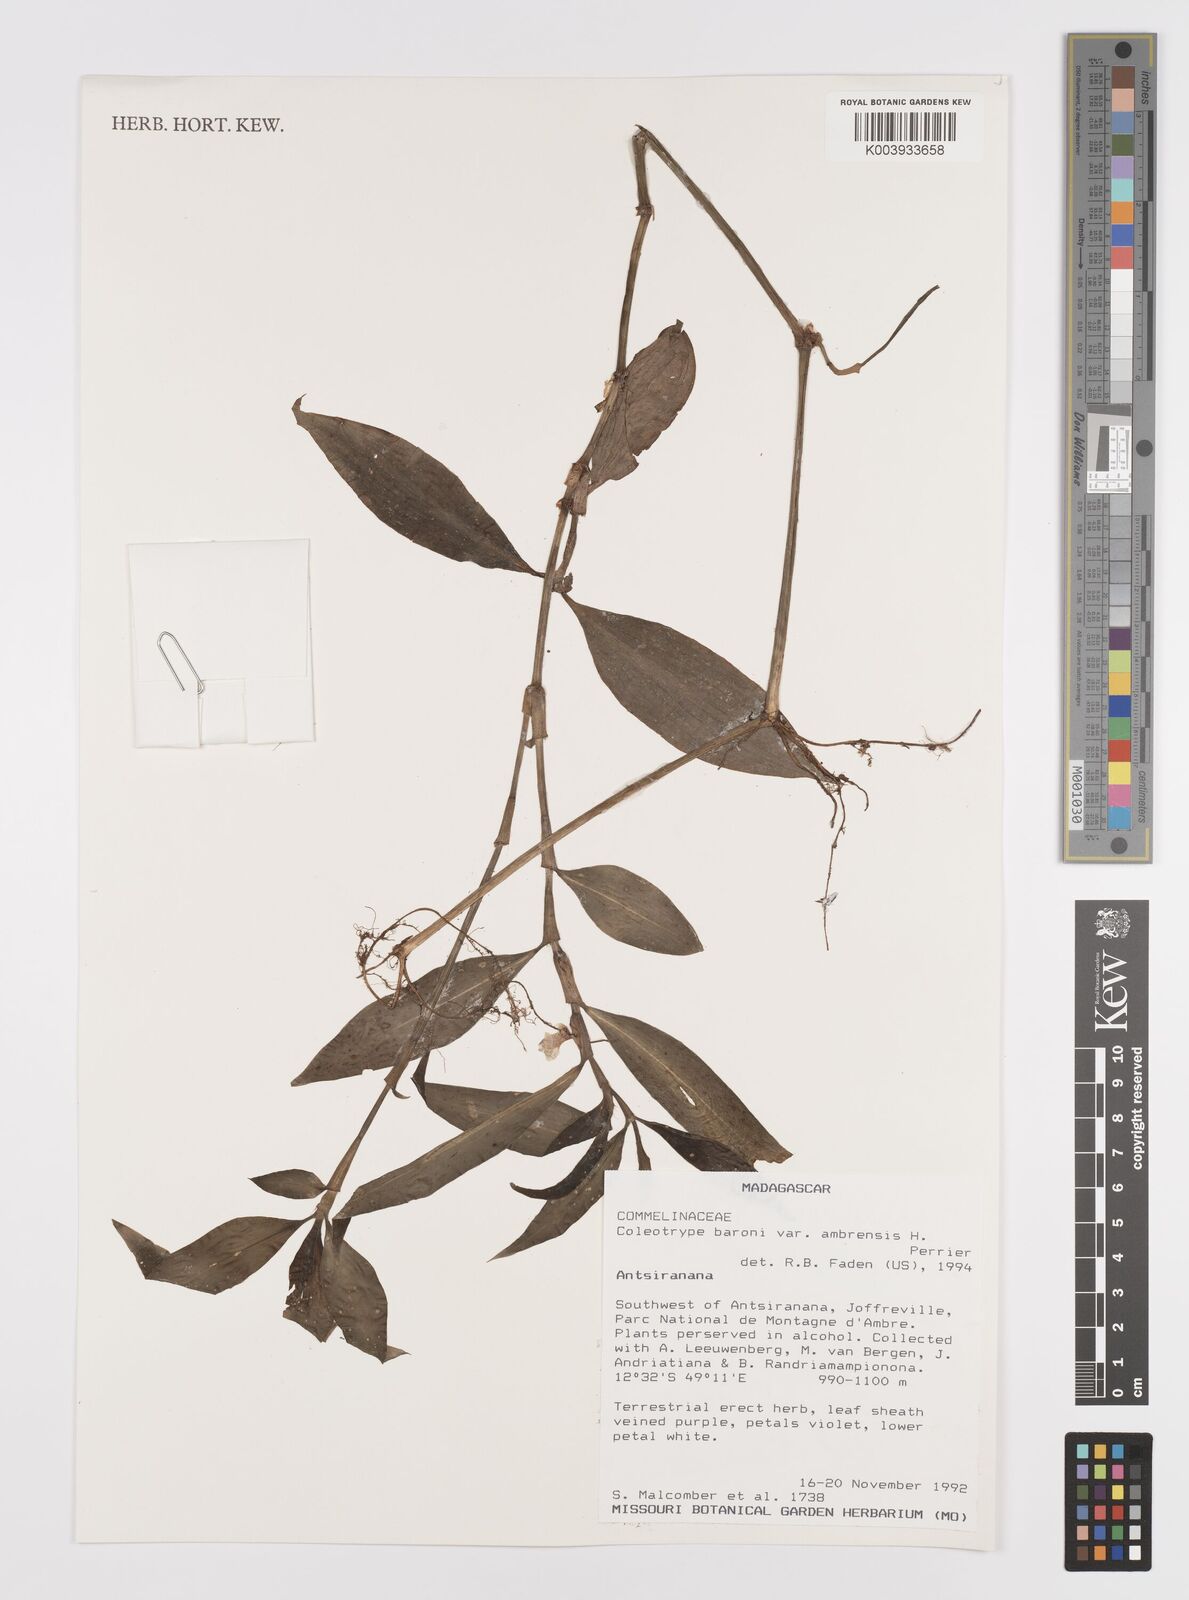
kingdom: Plantae
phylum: Tracheophyta
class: Liliopsida
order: Commelinales
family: Commelinaceae
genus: Coleotrype
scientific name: Coleotrype baronii
